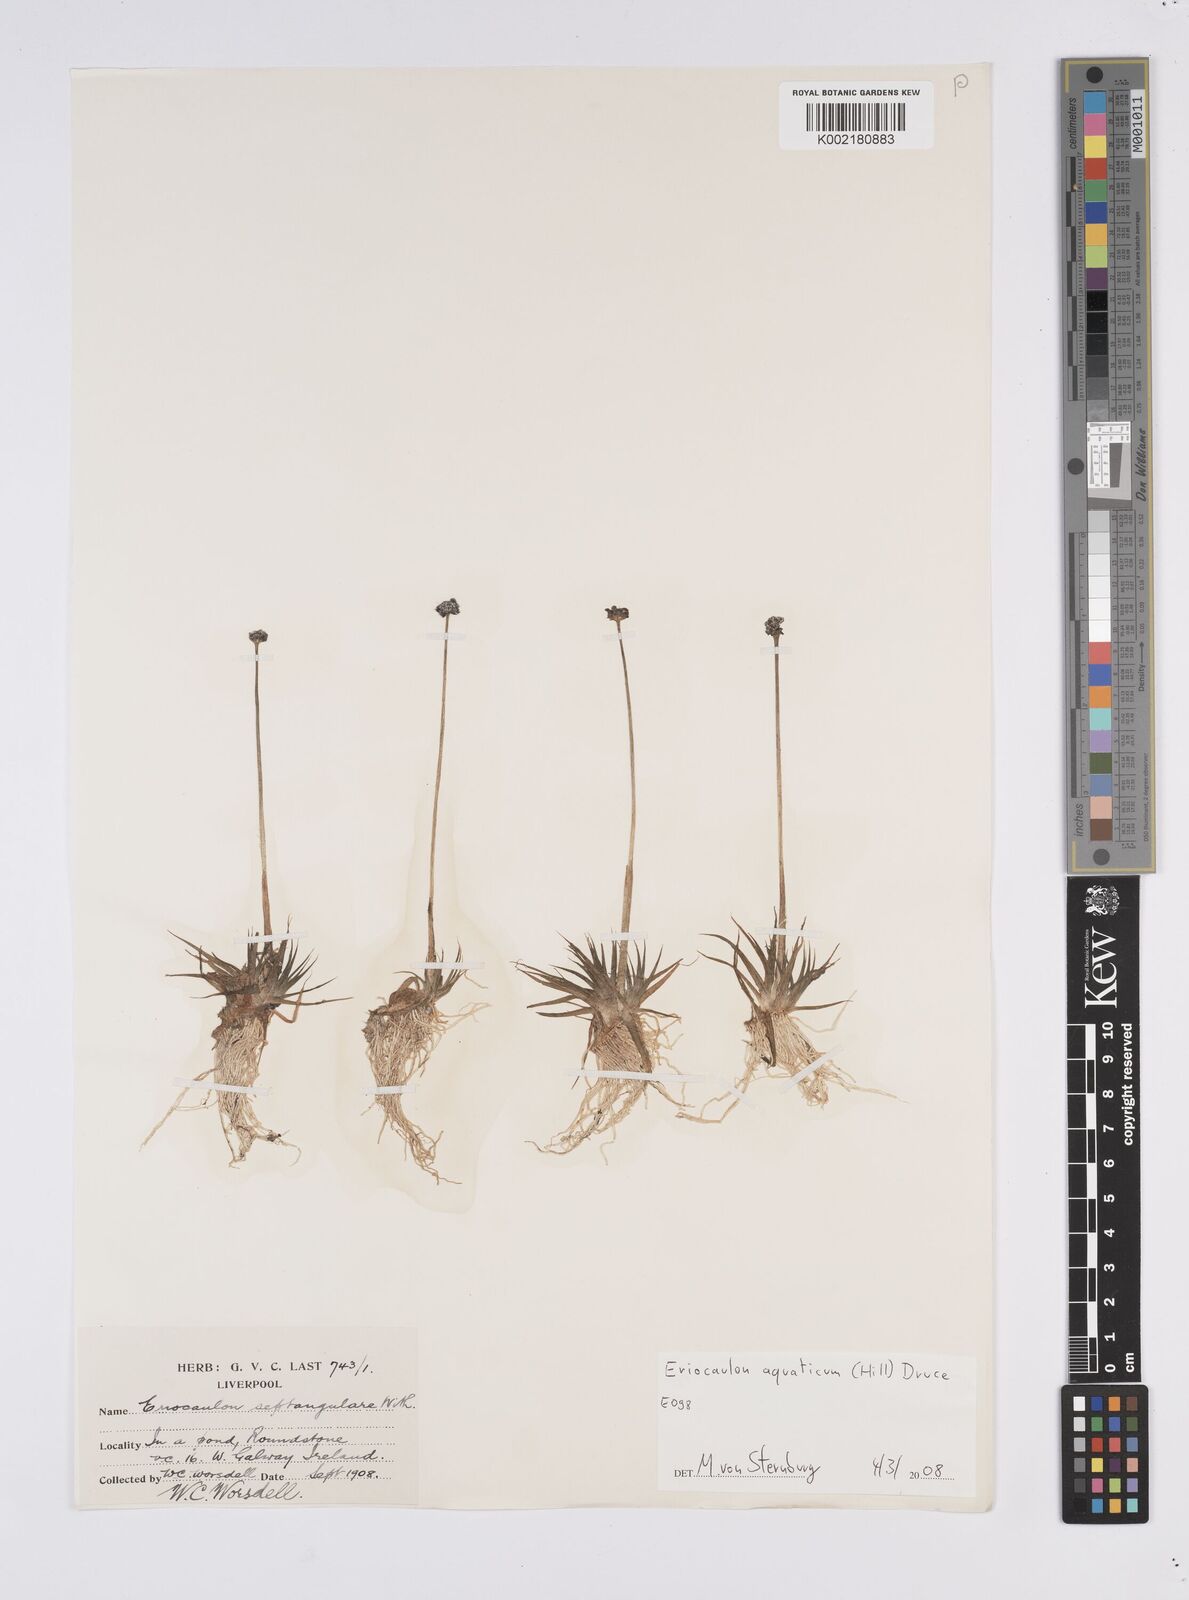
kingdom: Plantae
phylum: Tracheophyta
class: Liliopsida
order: Poales
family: Eriocaulaceae
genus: Eriocaulon
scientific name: Eriocaulon aquaticum
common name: Pipewort
